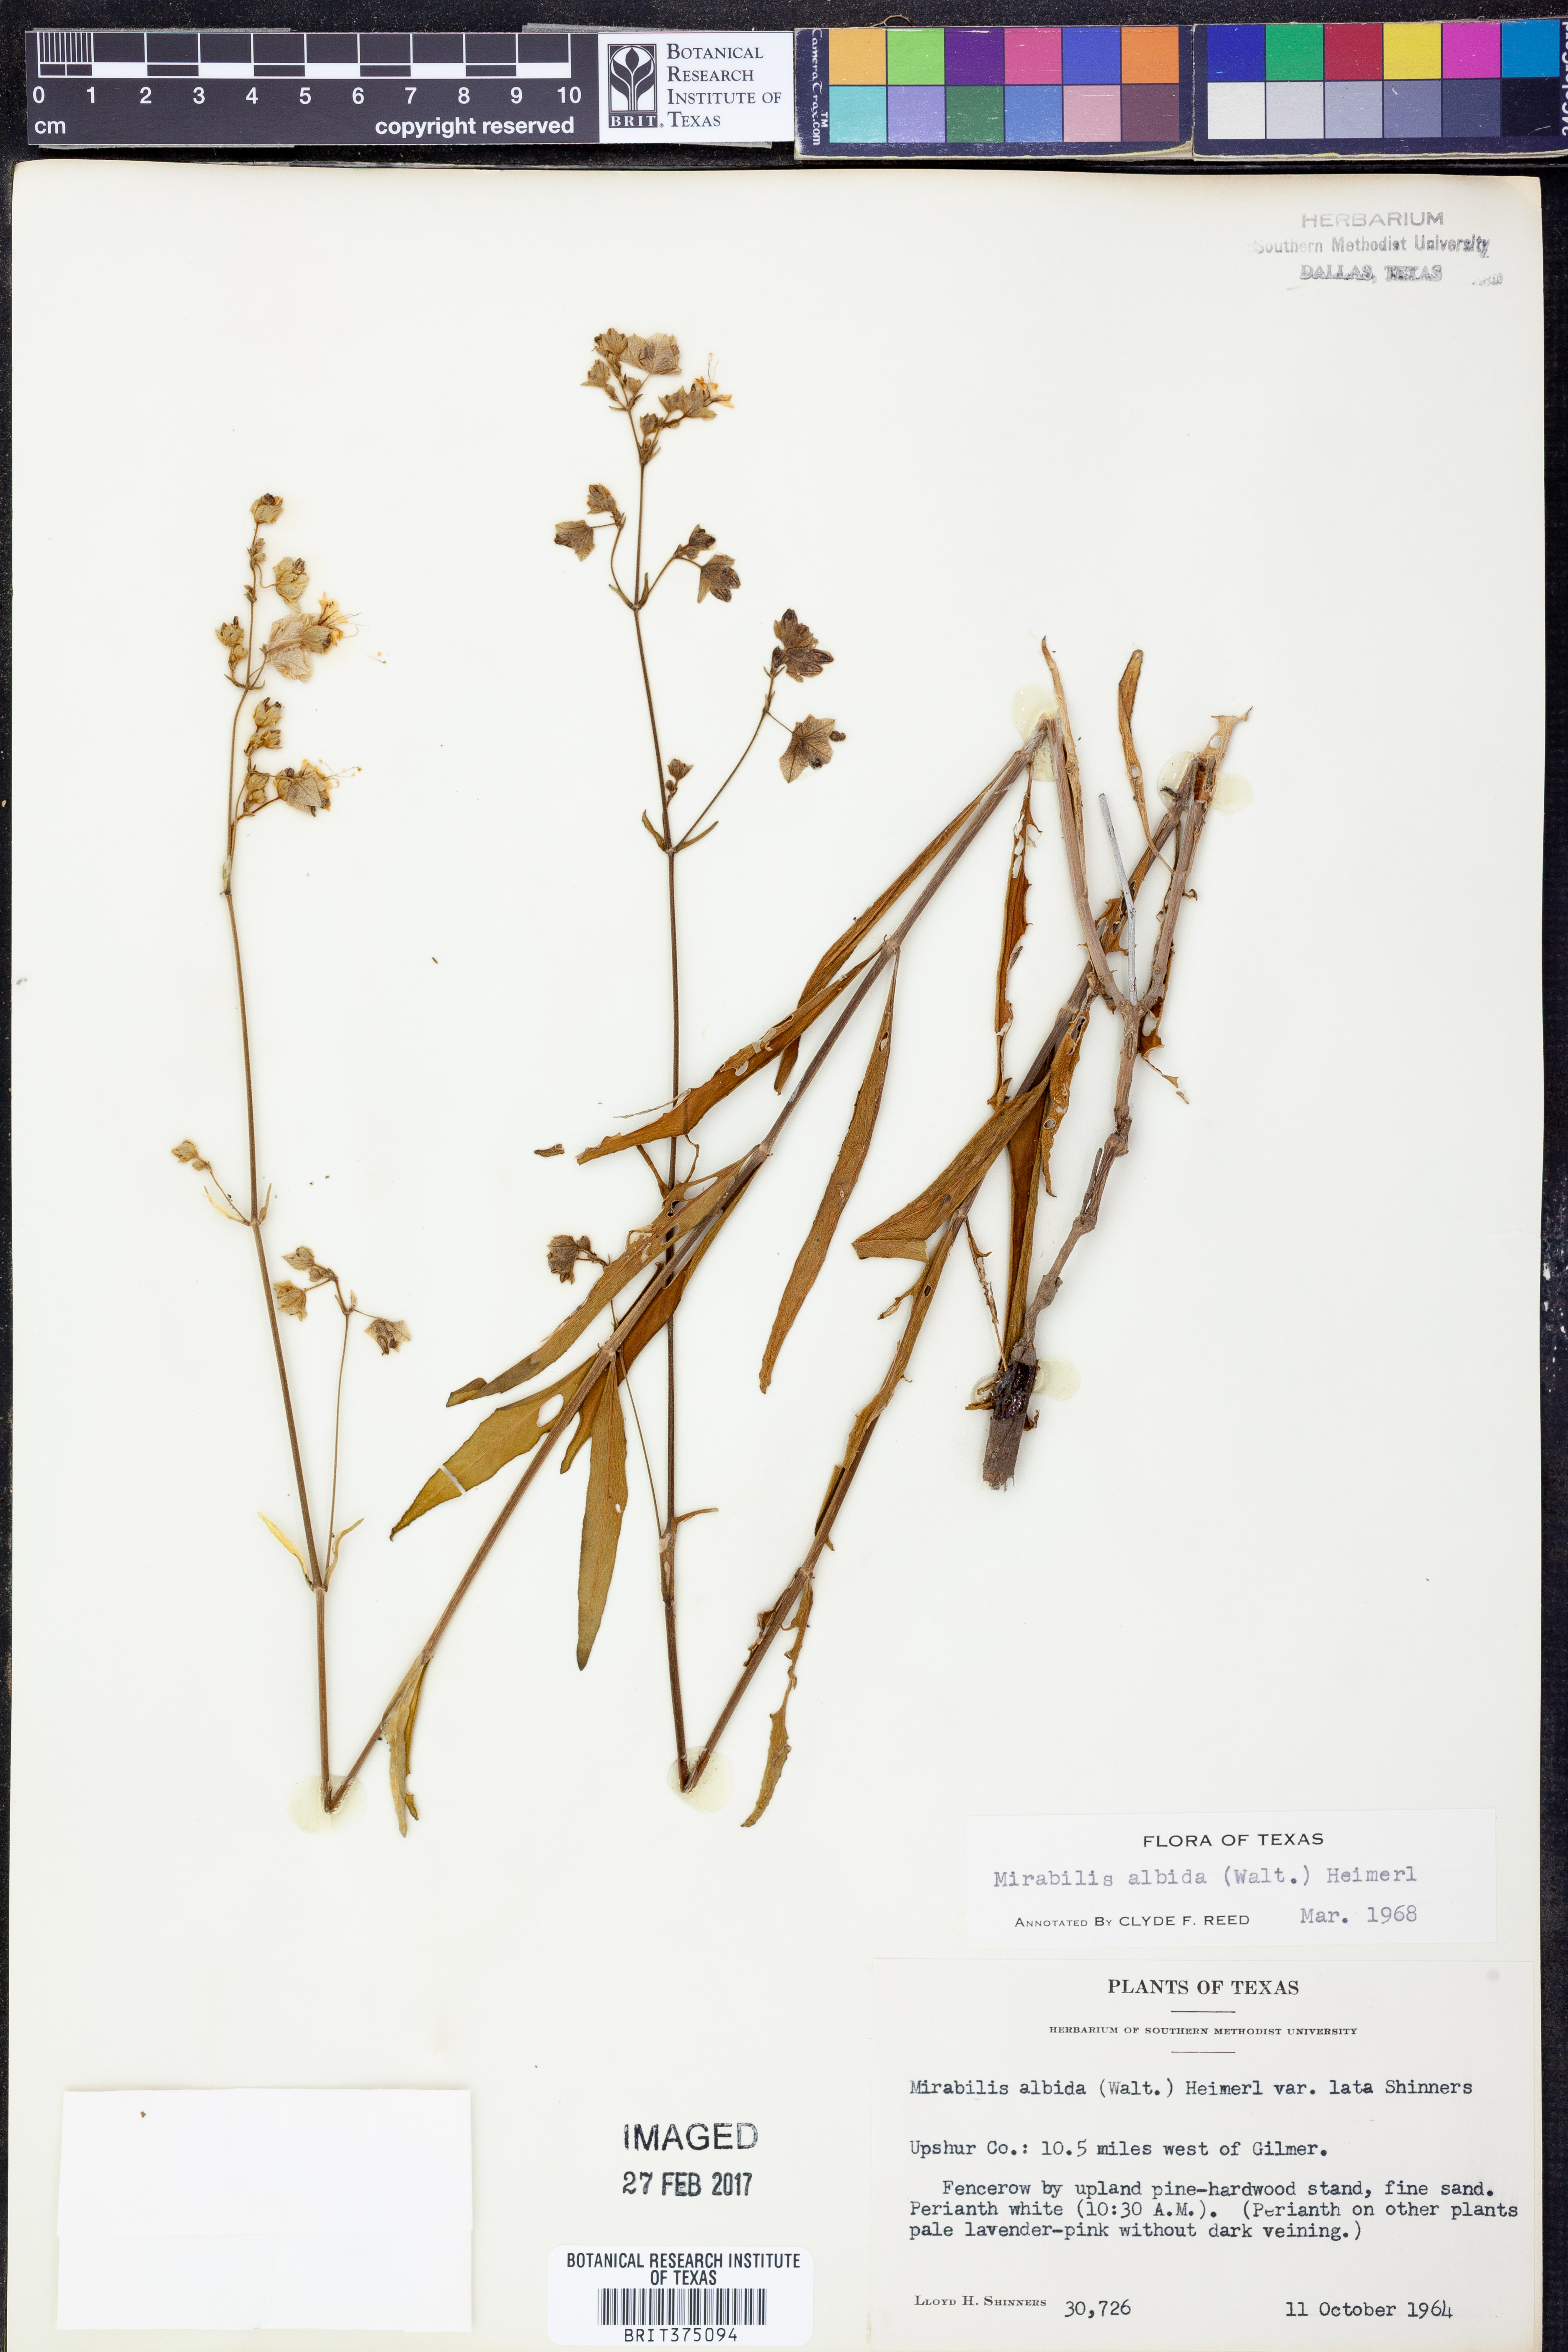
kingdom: Plantae
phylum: Tracheophyta
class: Magnoliopsida
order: Caryophyllales
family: Nyctaginaceae
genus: Mirabilis
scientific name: Mirabilis albida
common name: Hairy four-o'clock
